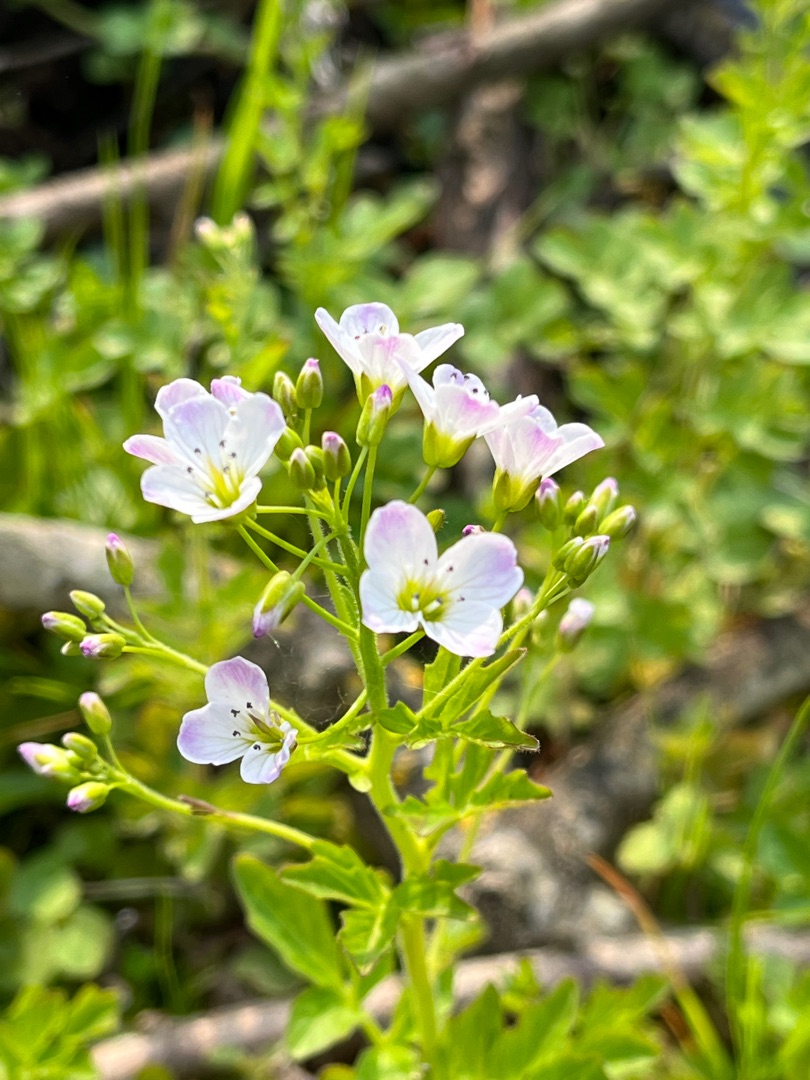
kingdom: Plantae
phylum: Tracheophyta
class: Magnoliopsida
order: Brassicales
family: Brassicaceae
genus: Cardamine
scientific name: Cardamine amara
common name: Vandkarse
